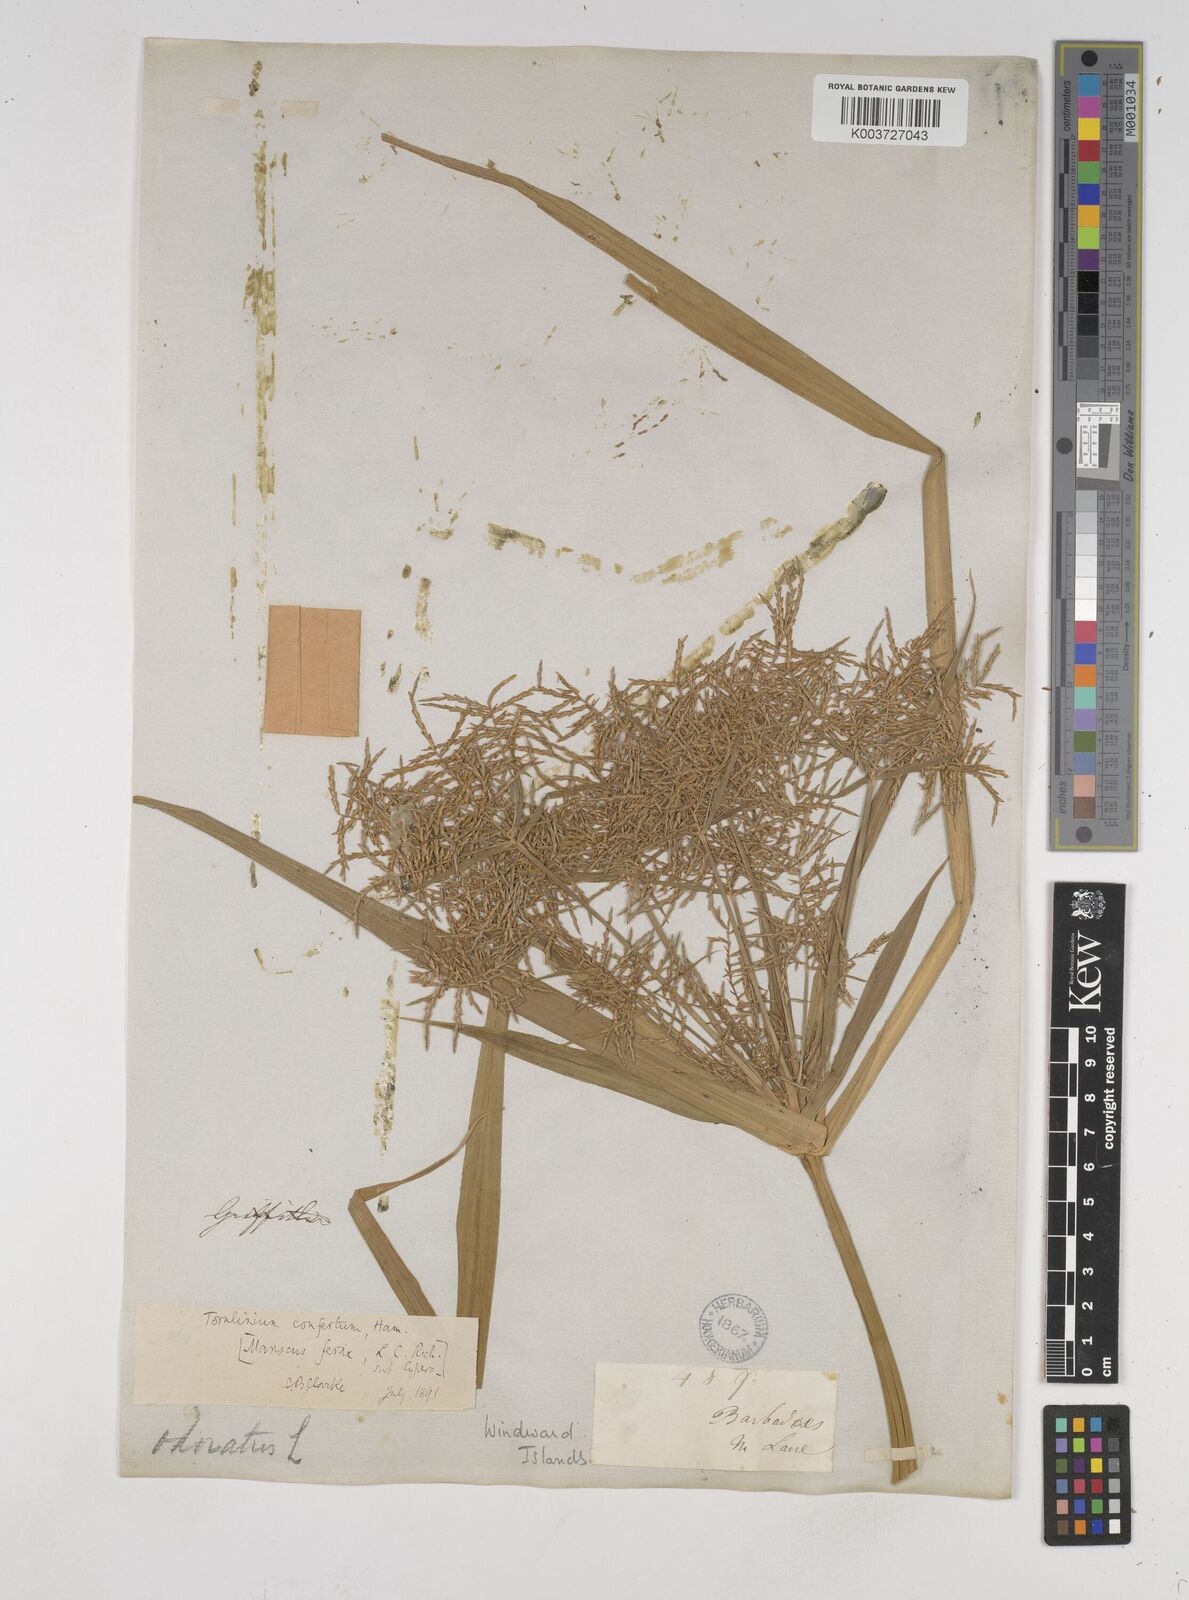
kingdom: Plantae
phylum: Tracheophyta
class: Liliopsida
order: Poales
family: Cyperaceae
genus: Cyperus
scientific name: Cyperus odoratus
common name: Fragrant flatsedge
